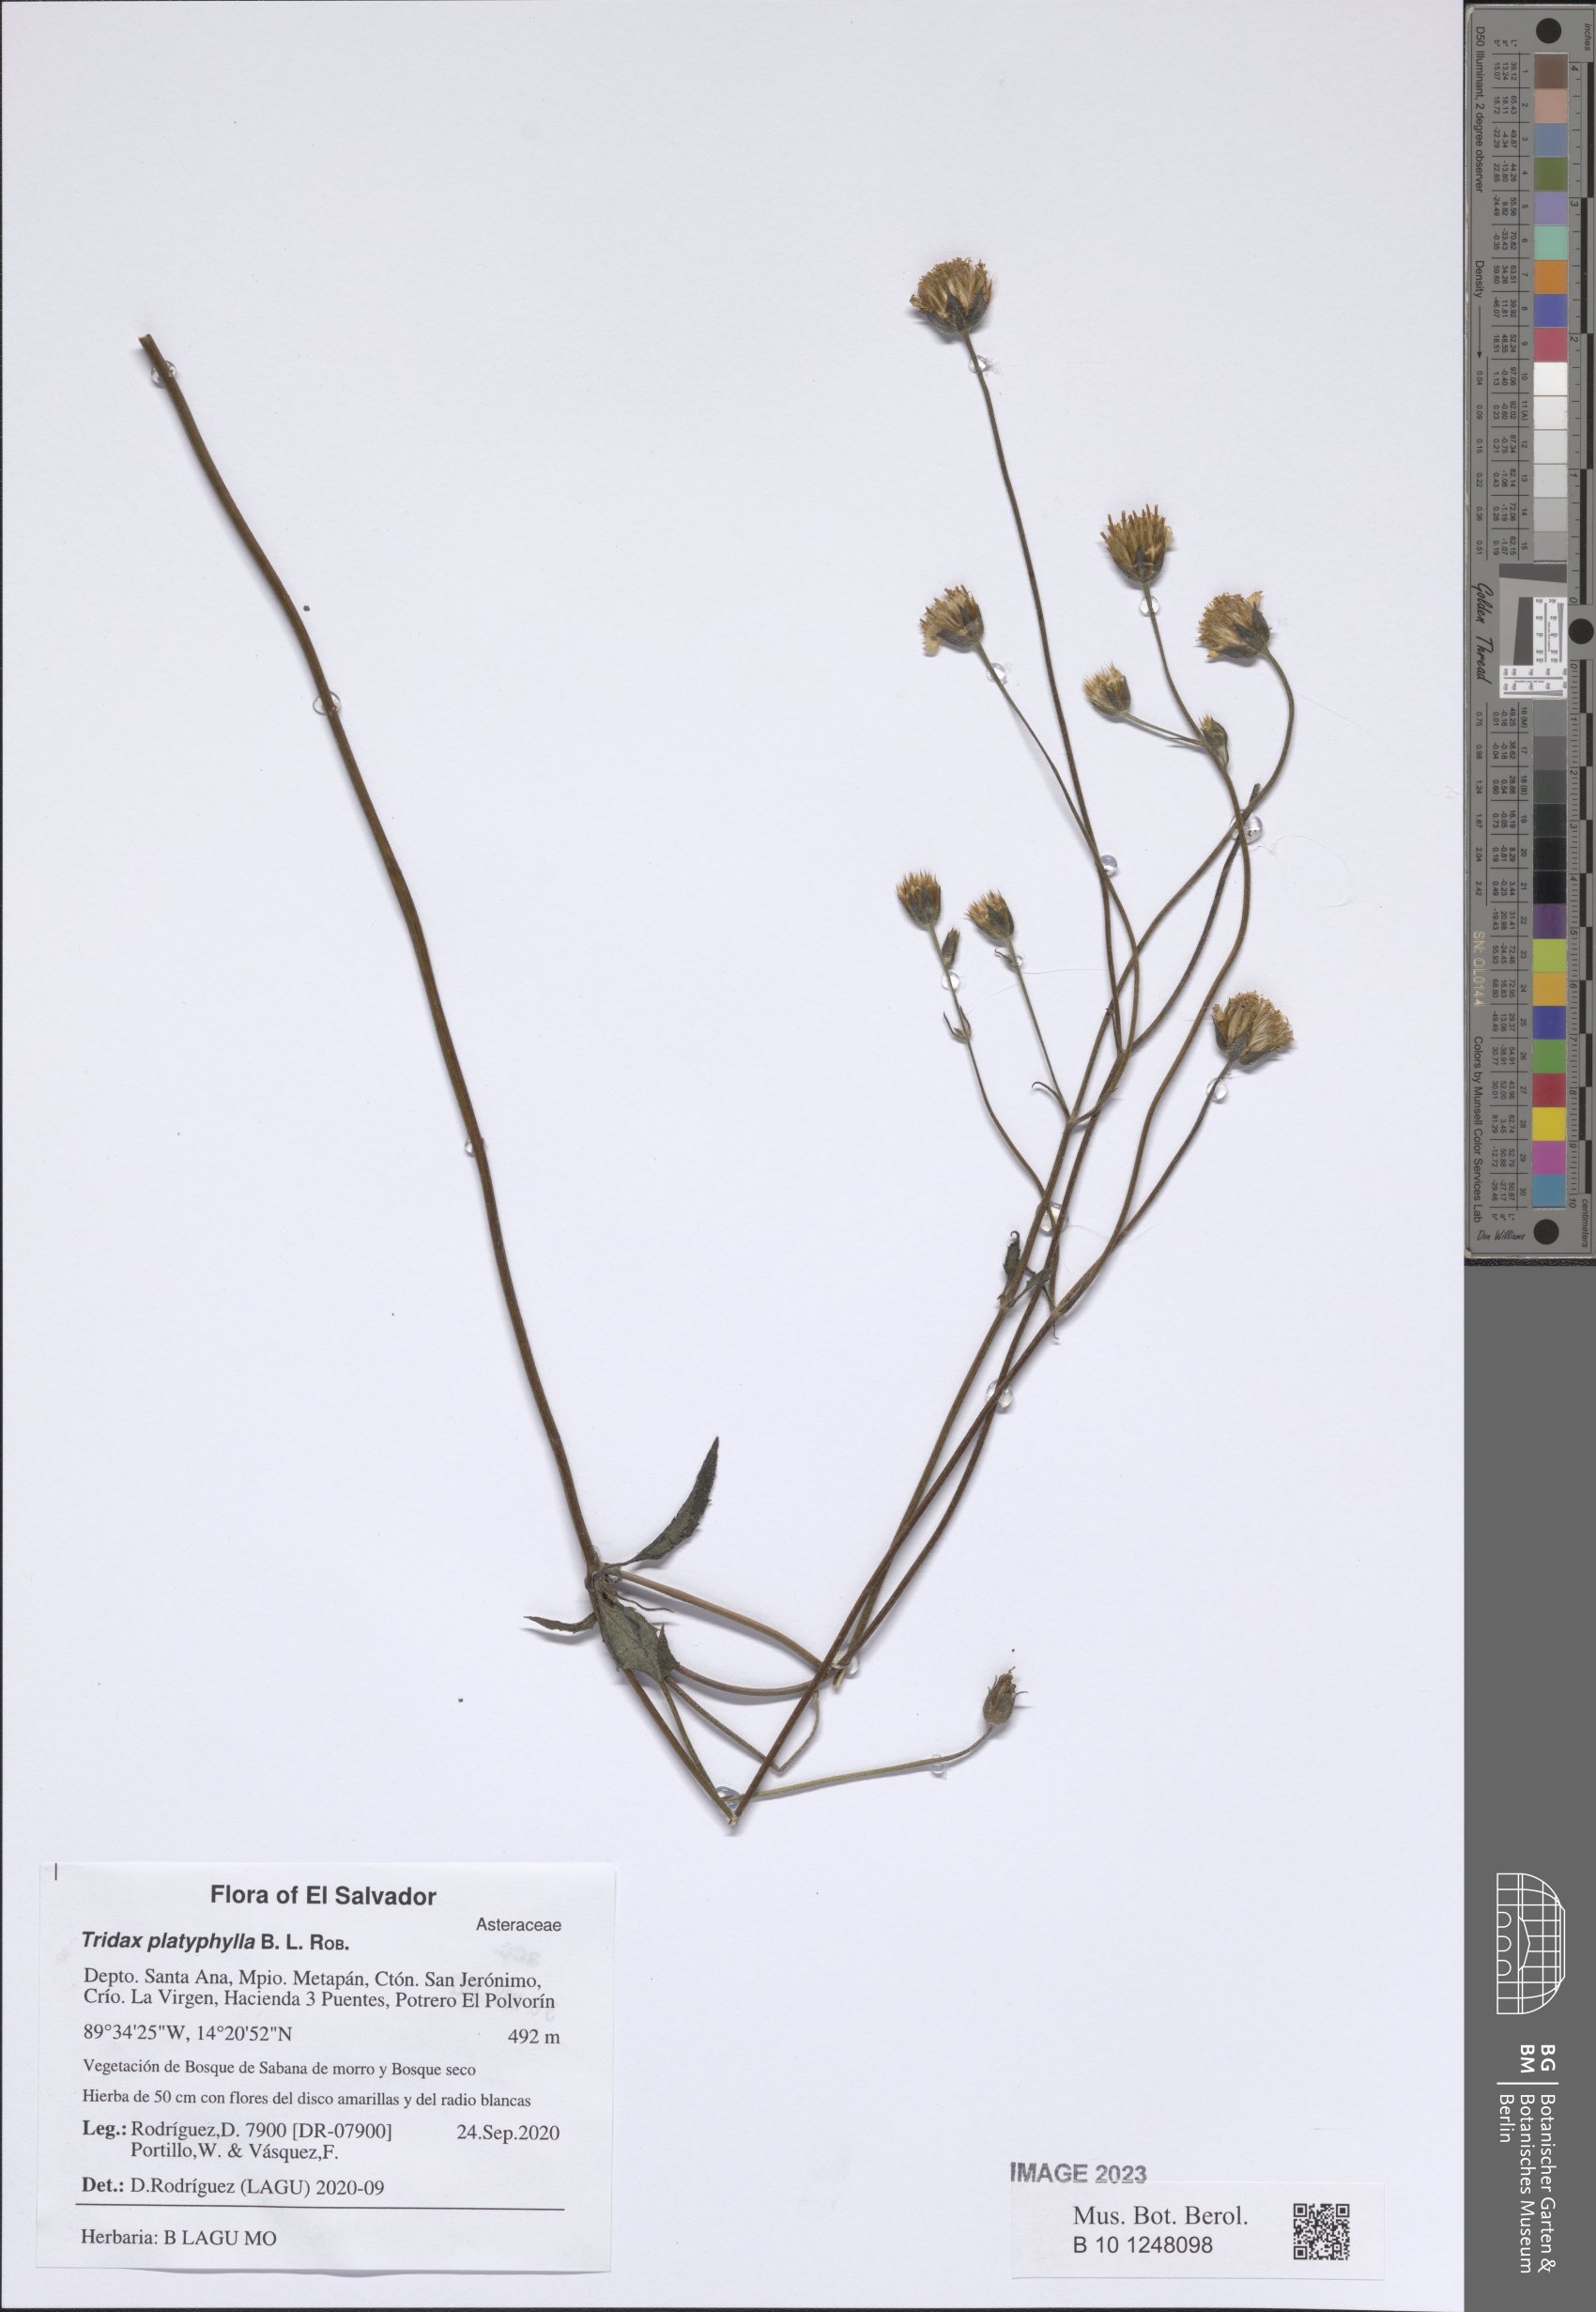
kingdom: Plantae
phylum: Tracheophyta
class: Magnoliopsida
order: Asterales
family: Asteraceae
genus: Tridax
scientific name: Tridax platyphylla
